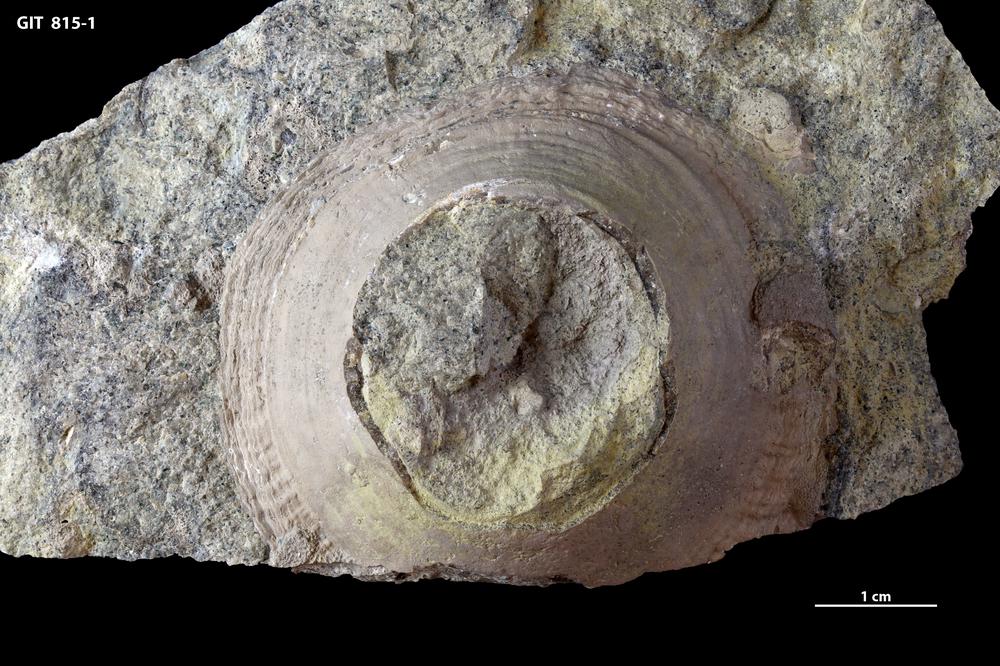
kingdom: Animalia
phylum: Mollusca
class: Monoplacophora
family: Metoptomatidae
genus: Metoptoma
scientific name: Metoptoma
